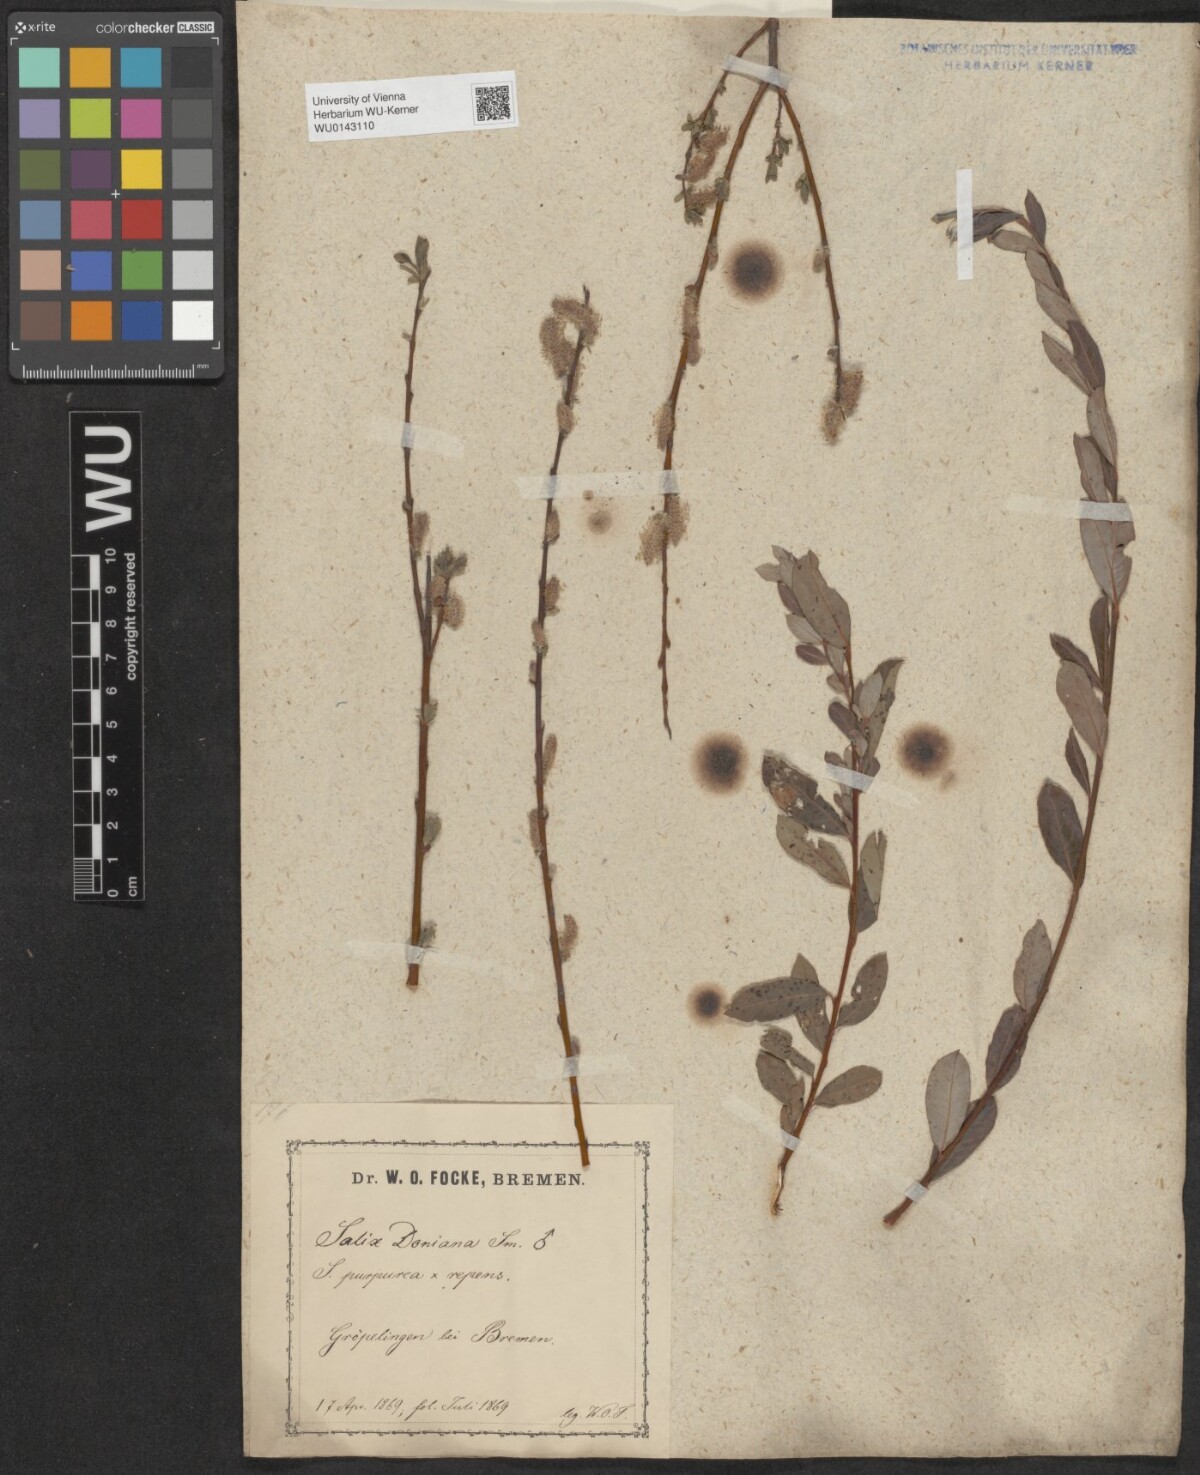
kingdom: Plantae
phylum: Tracheophyta
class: Magnoliopsida
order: Malpighiales
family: Salicaceae
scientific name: Salicaceae
